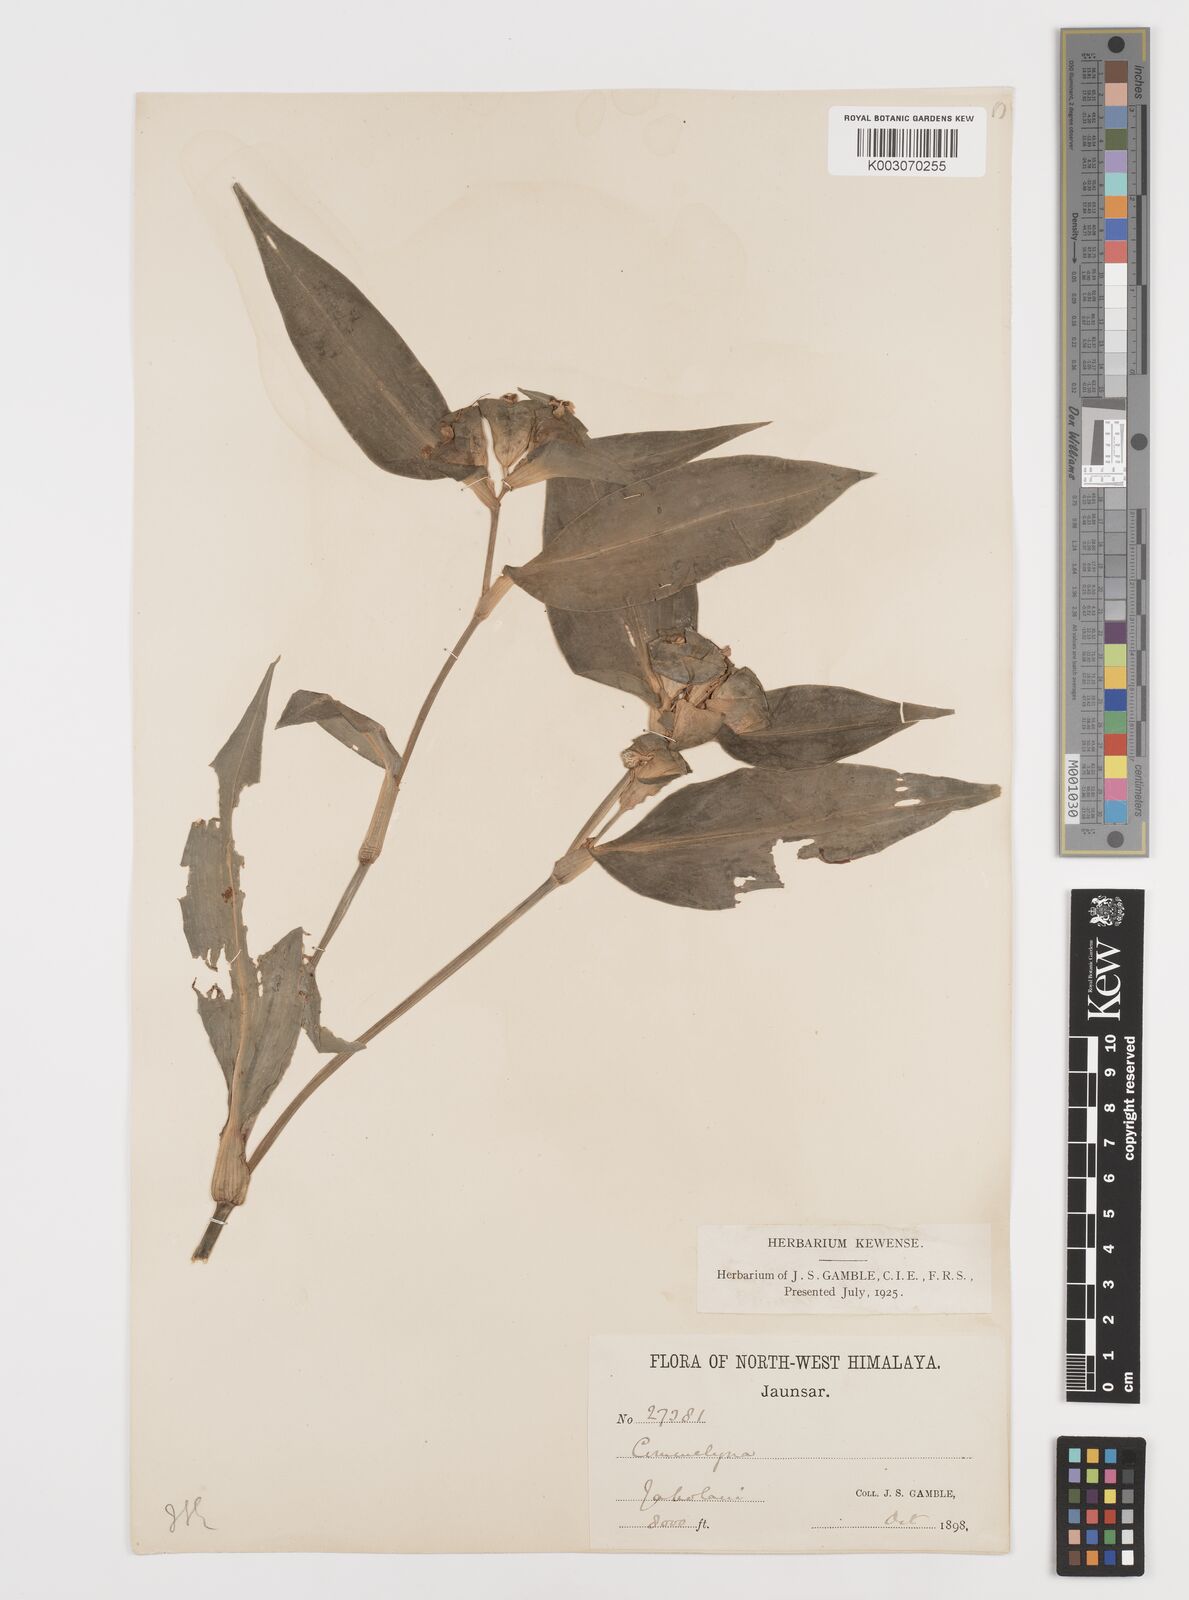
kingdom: Plantae
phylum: Tracheophyta
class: Liliopsida
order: Commelinales
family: Commelinaceae
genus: Commelina
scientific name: Commelina paludosa
